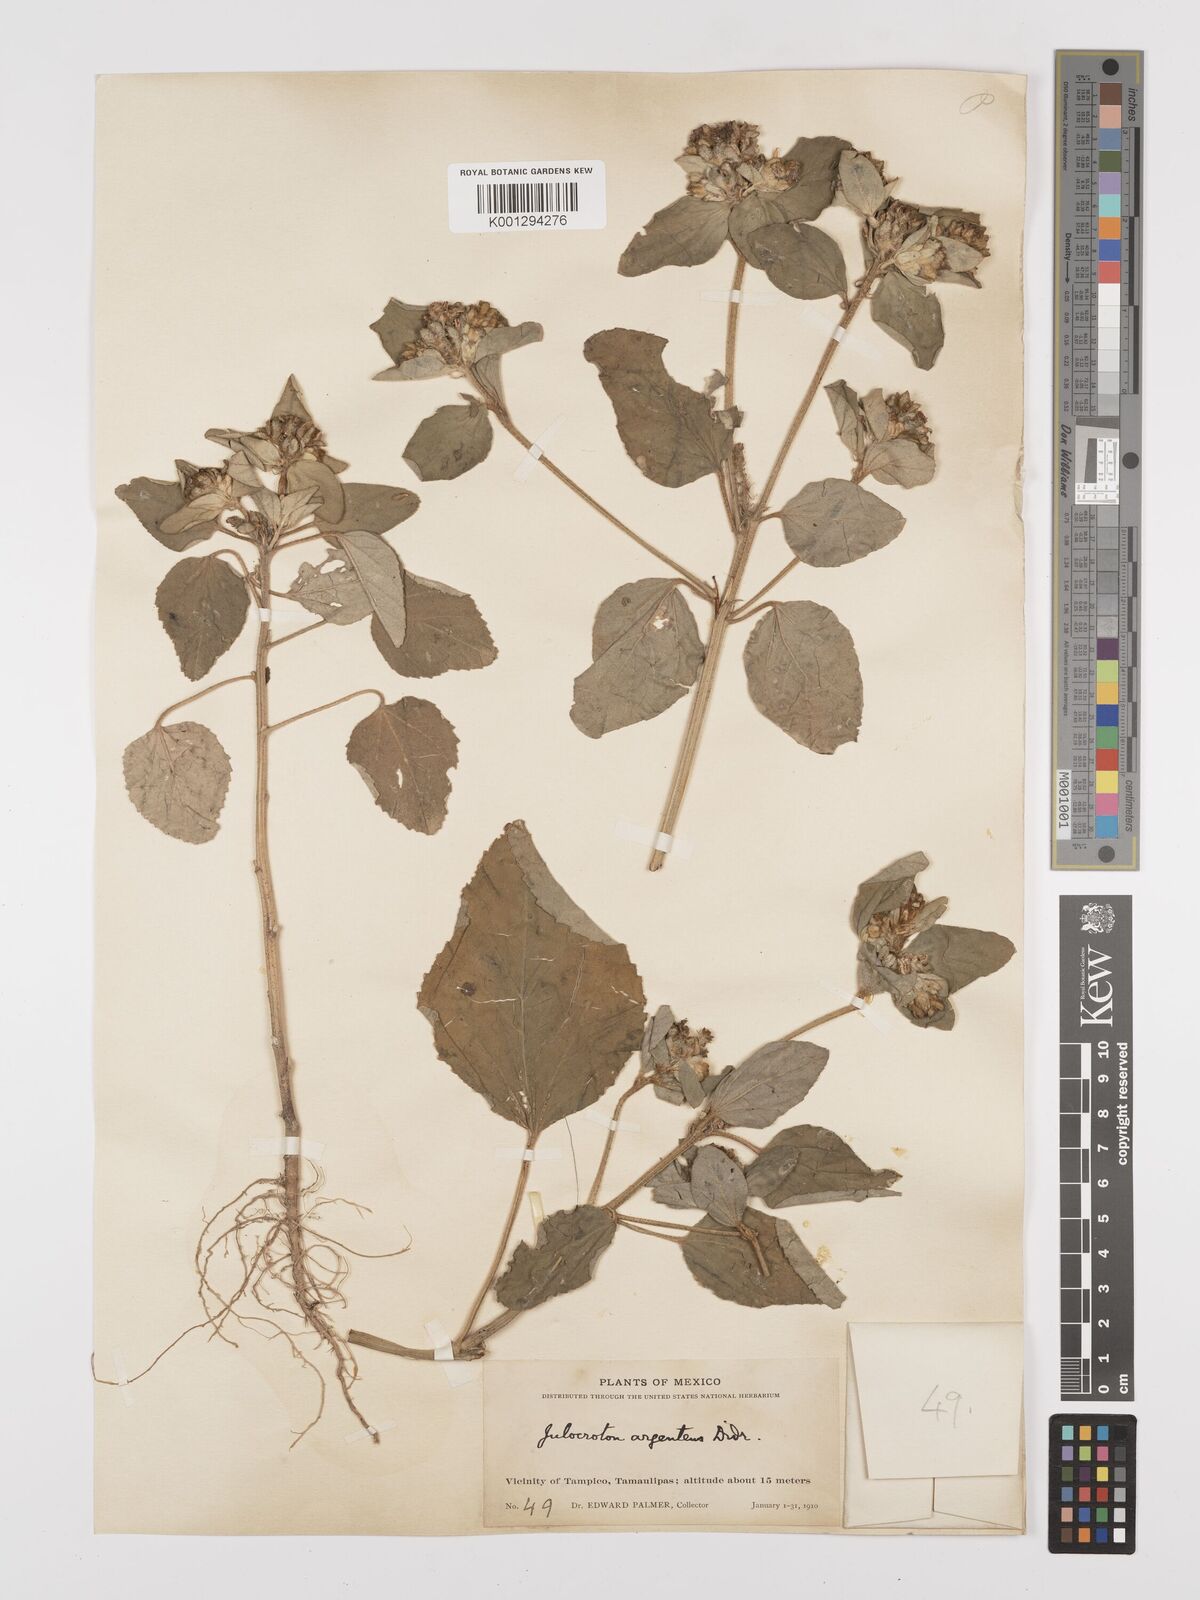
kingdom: Plantae
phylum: Tracheophyta
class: Magnoliopsida
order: Malpighiales
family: Euphorbiaceae
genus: Croton
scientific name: Croton argenteus
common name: Silver july croton
